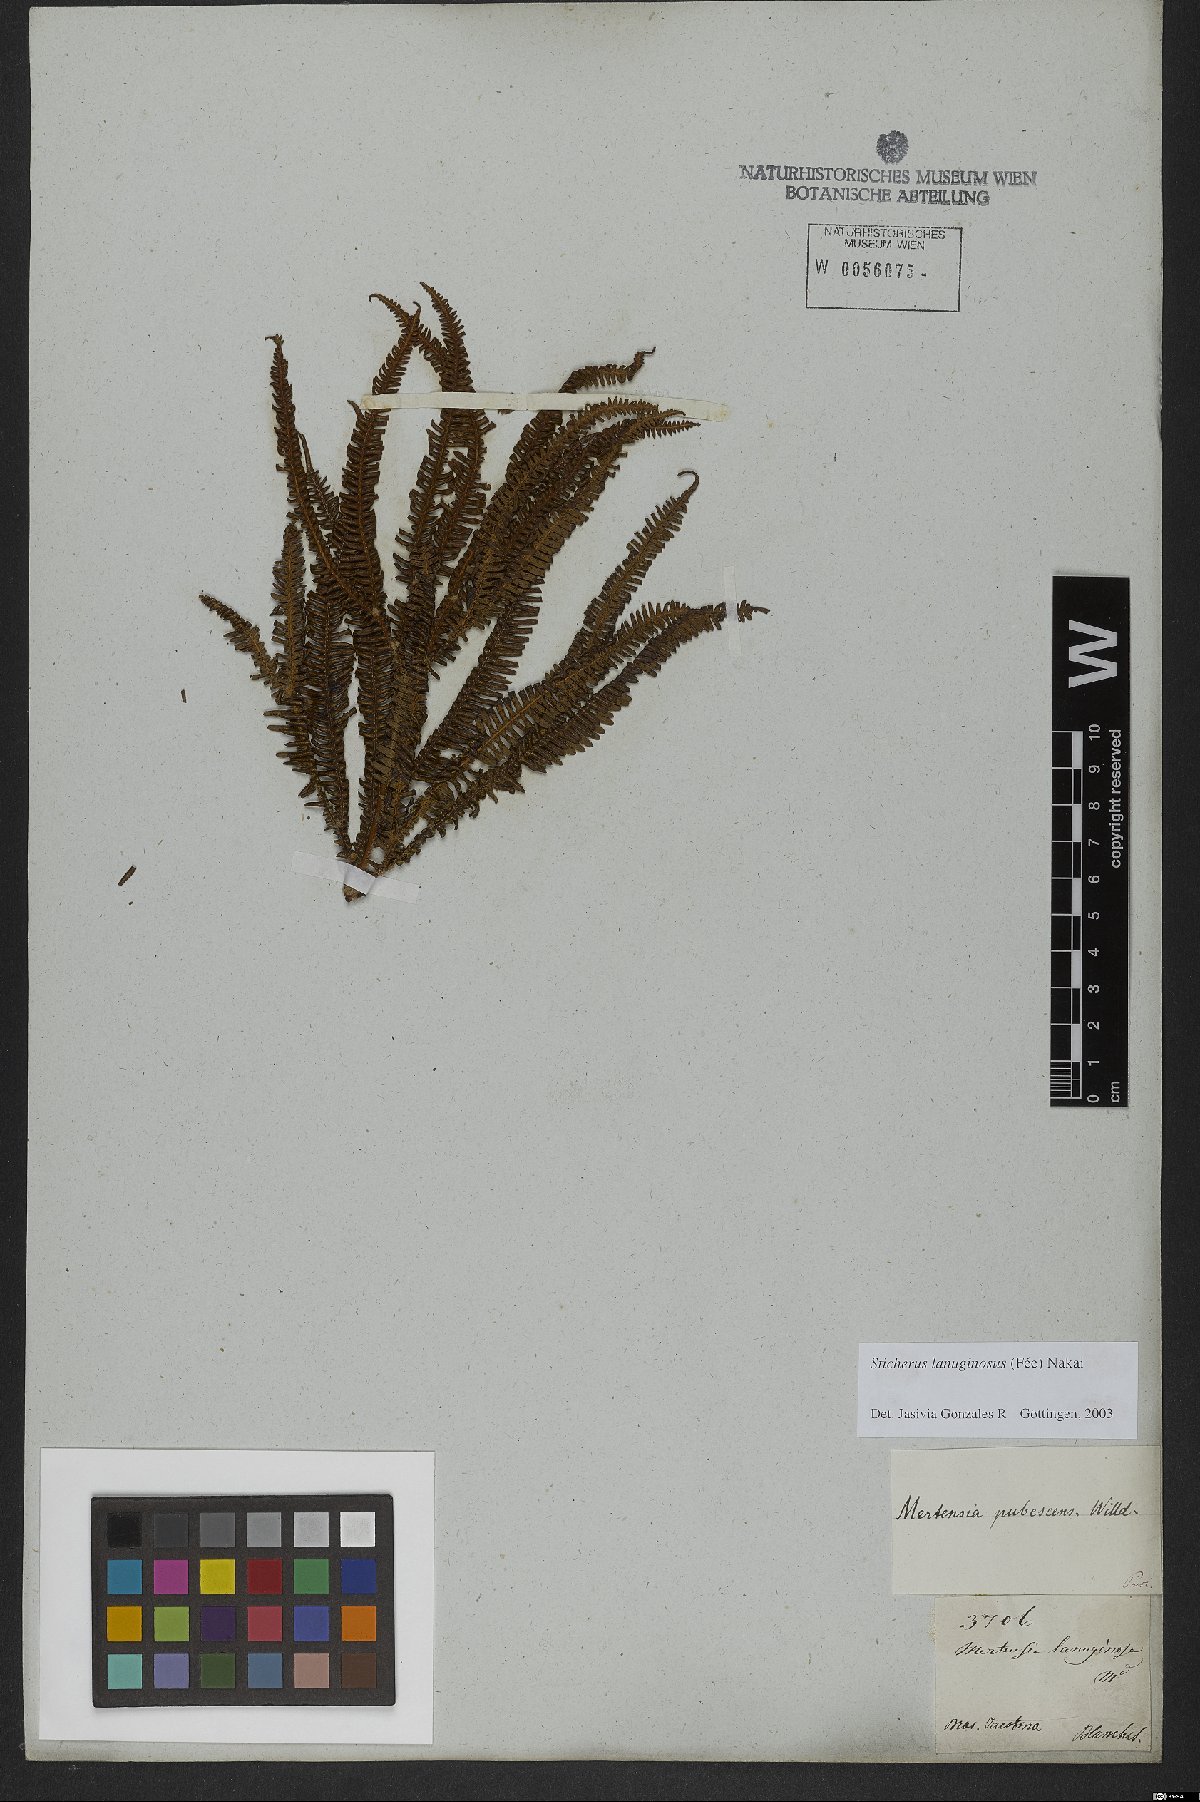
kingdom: Plantae
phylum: Tracheophyta
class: Polypodiopsida
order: Gleicheniales
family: Gleicheniaceae
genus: Sticherus
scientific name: Sticherus lanuginosus
